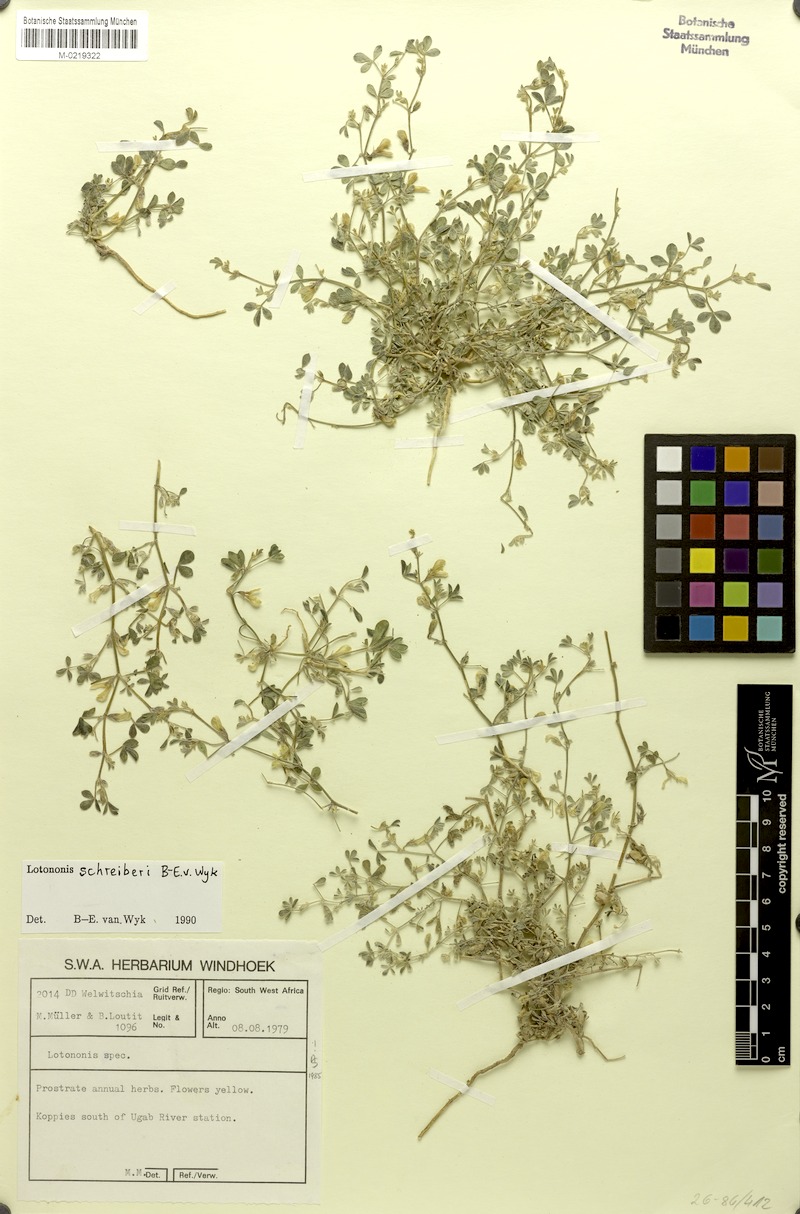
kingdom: Plantae
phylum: Tracheophyta
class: Magnoliopsida
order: Fabales
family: Fabaceae
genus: Lotononis
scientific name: Lotononis schreiberi
